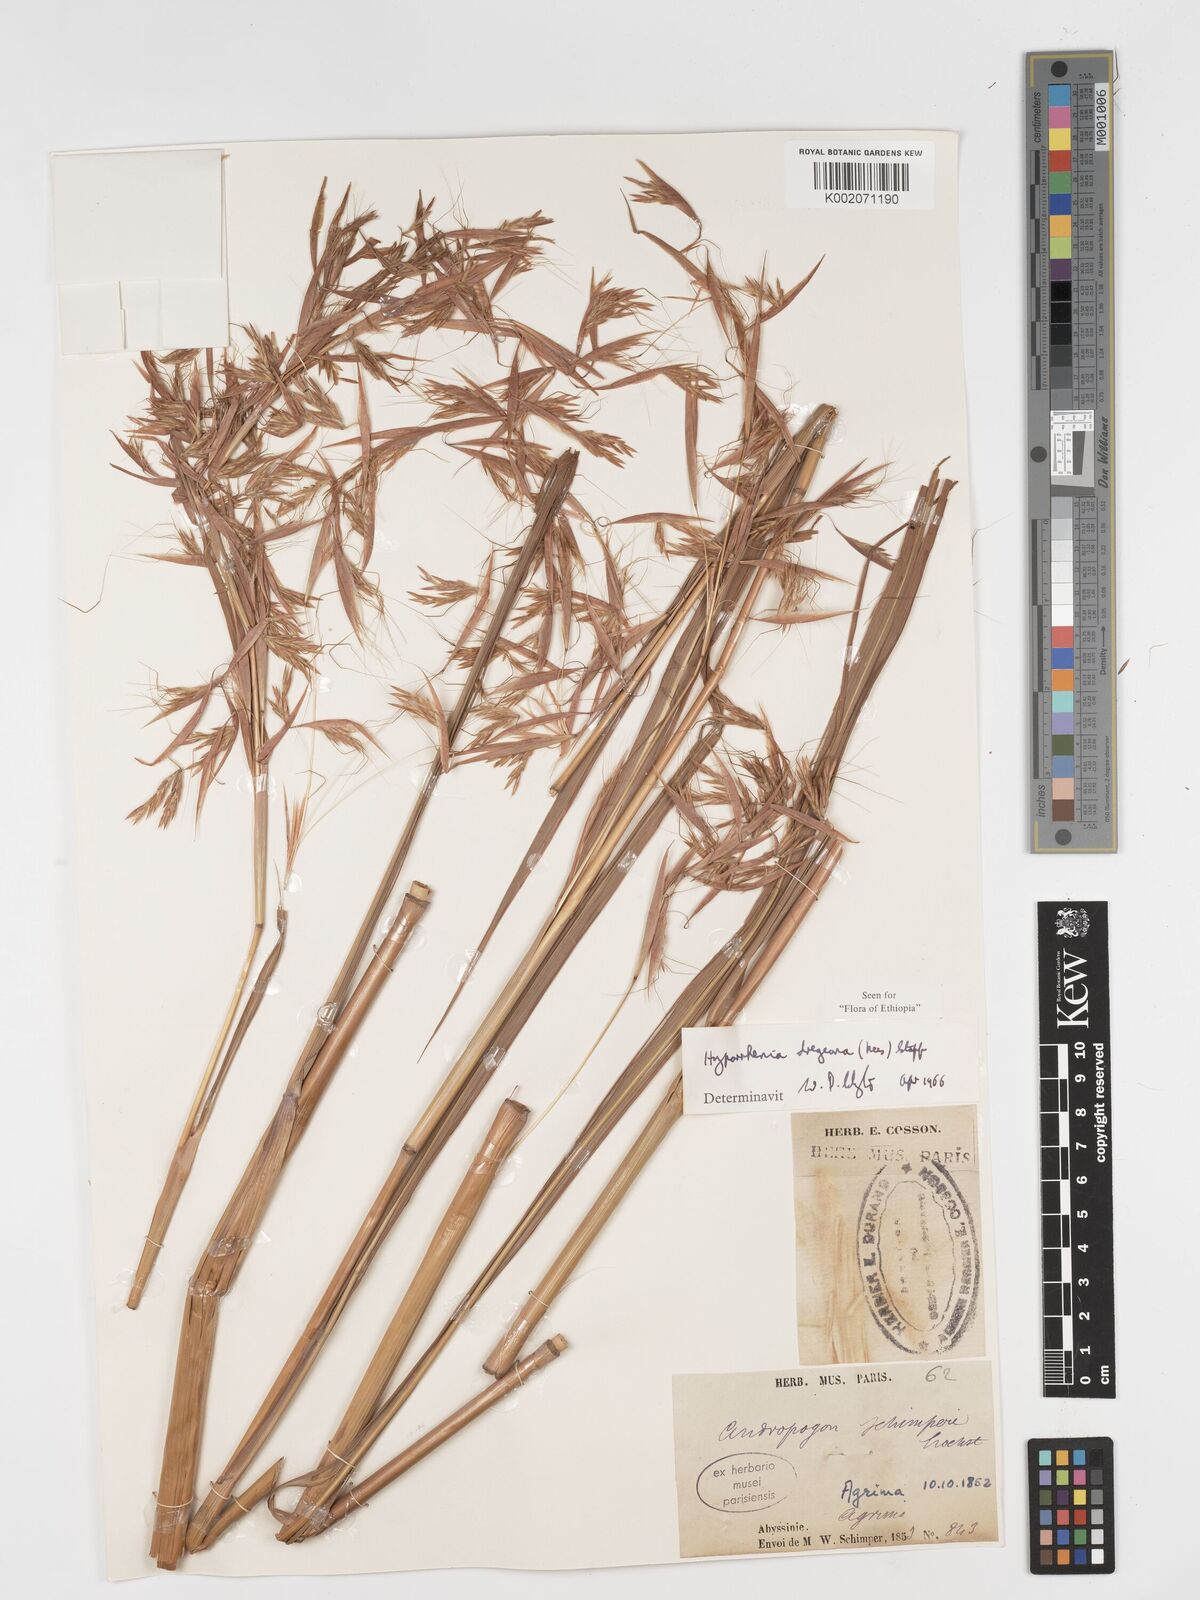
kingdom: Plantae
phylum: Tracheophyta
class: Liliopsida
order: Poales
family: Poaceae
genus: Hyparrhenia
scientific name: Hyparrhenia dregeana
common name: Silky thatching grass
